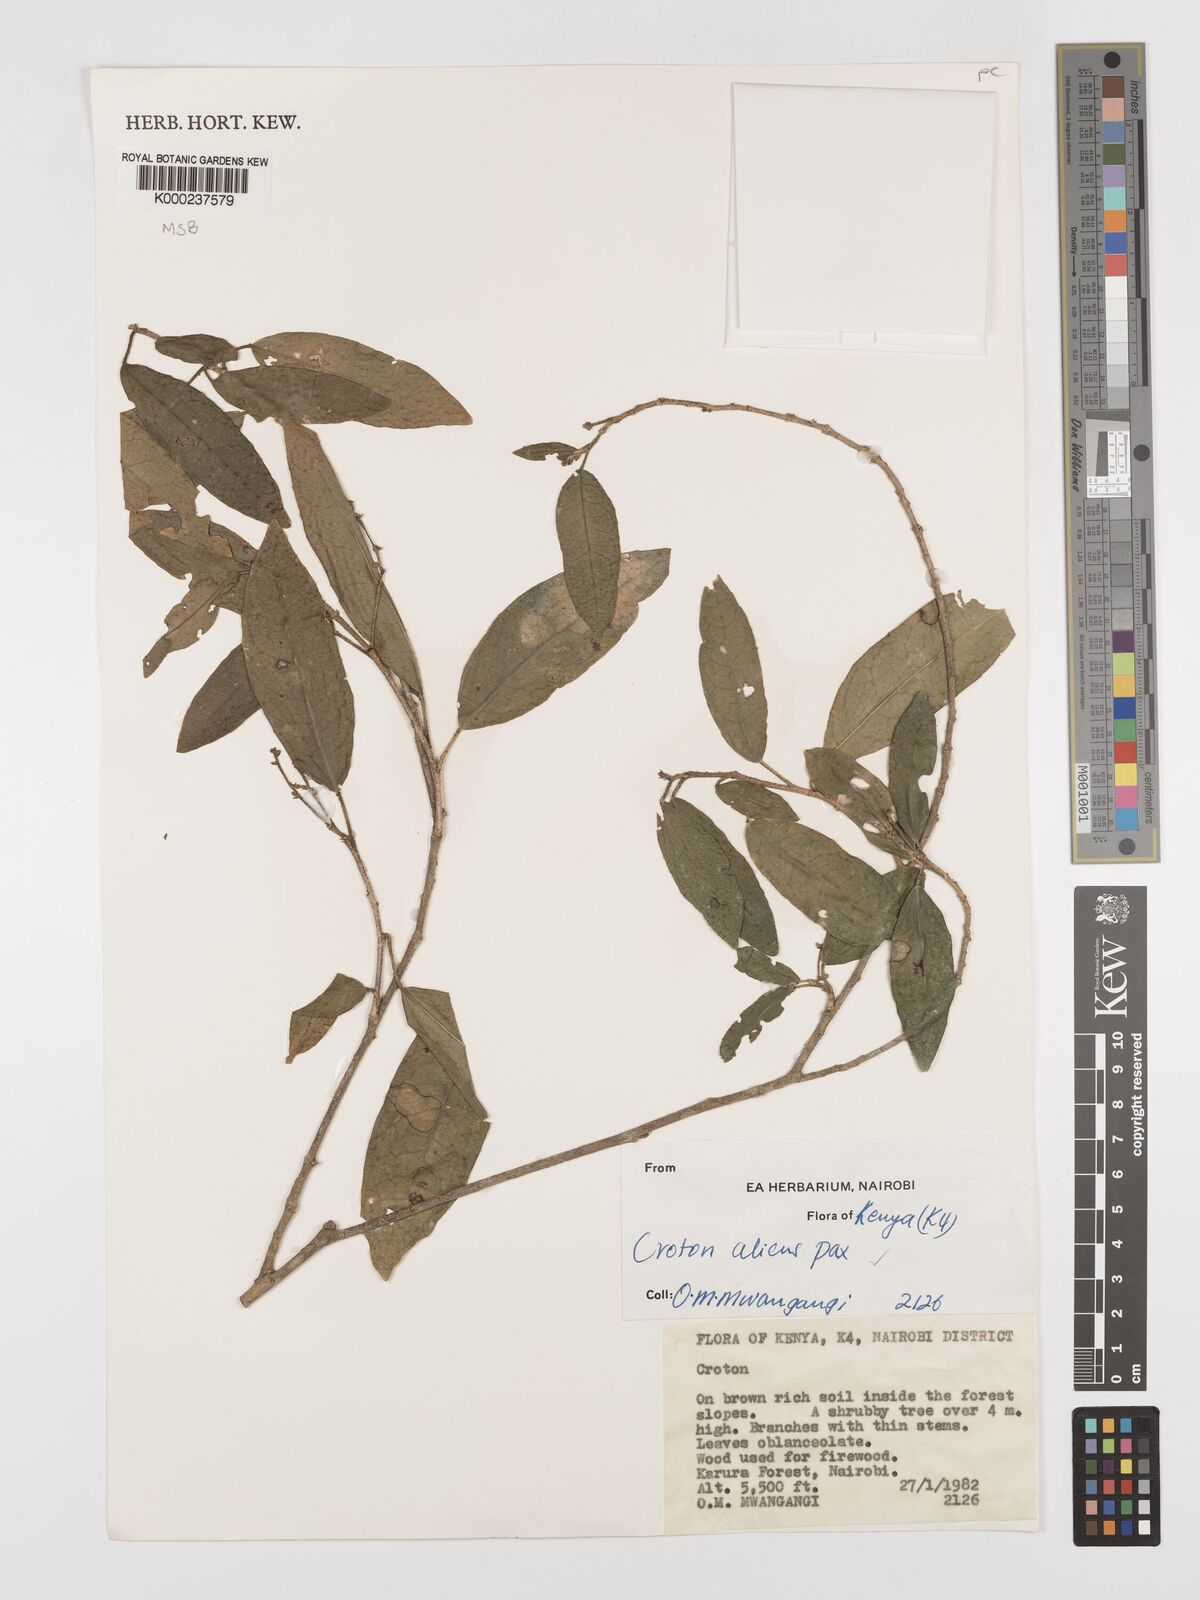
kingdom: Plantae
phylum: Tracheophyta
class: Magnoliopsida
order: Malpighiales
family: Euphorbiaceae
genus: Croton
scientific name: Croton alienus
